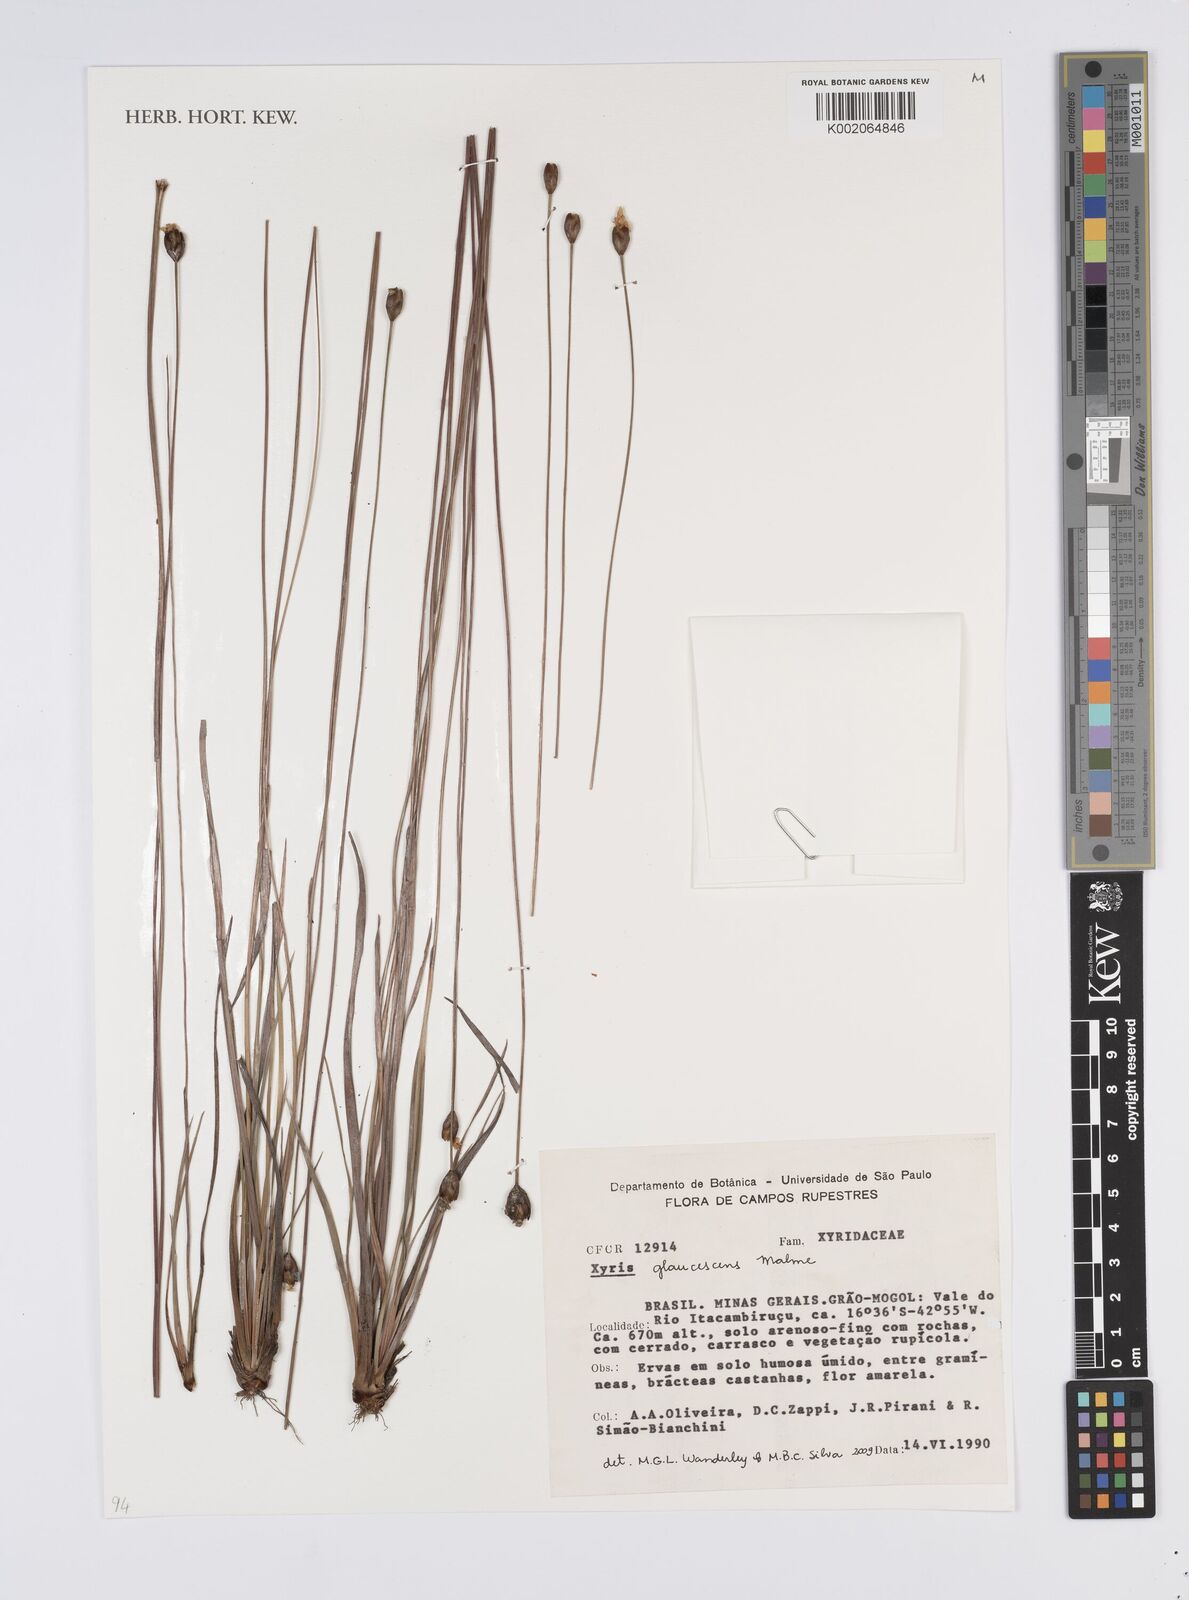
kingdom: Plantae
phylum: Tracheophyta
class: Liliopsida
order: Poales
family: Xyridaceae
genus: Xyris
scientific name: Xyris trachyphylla
